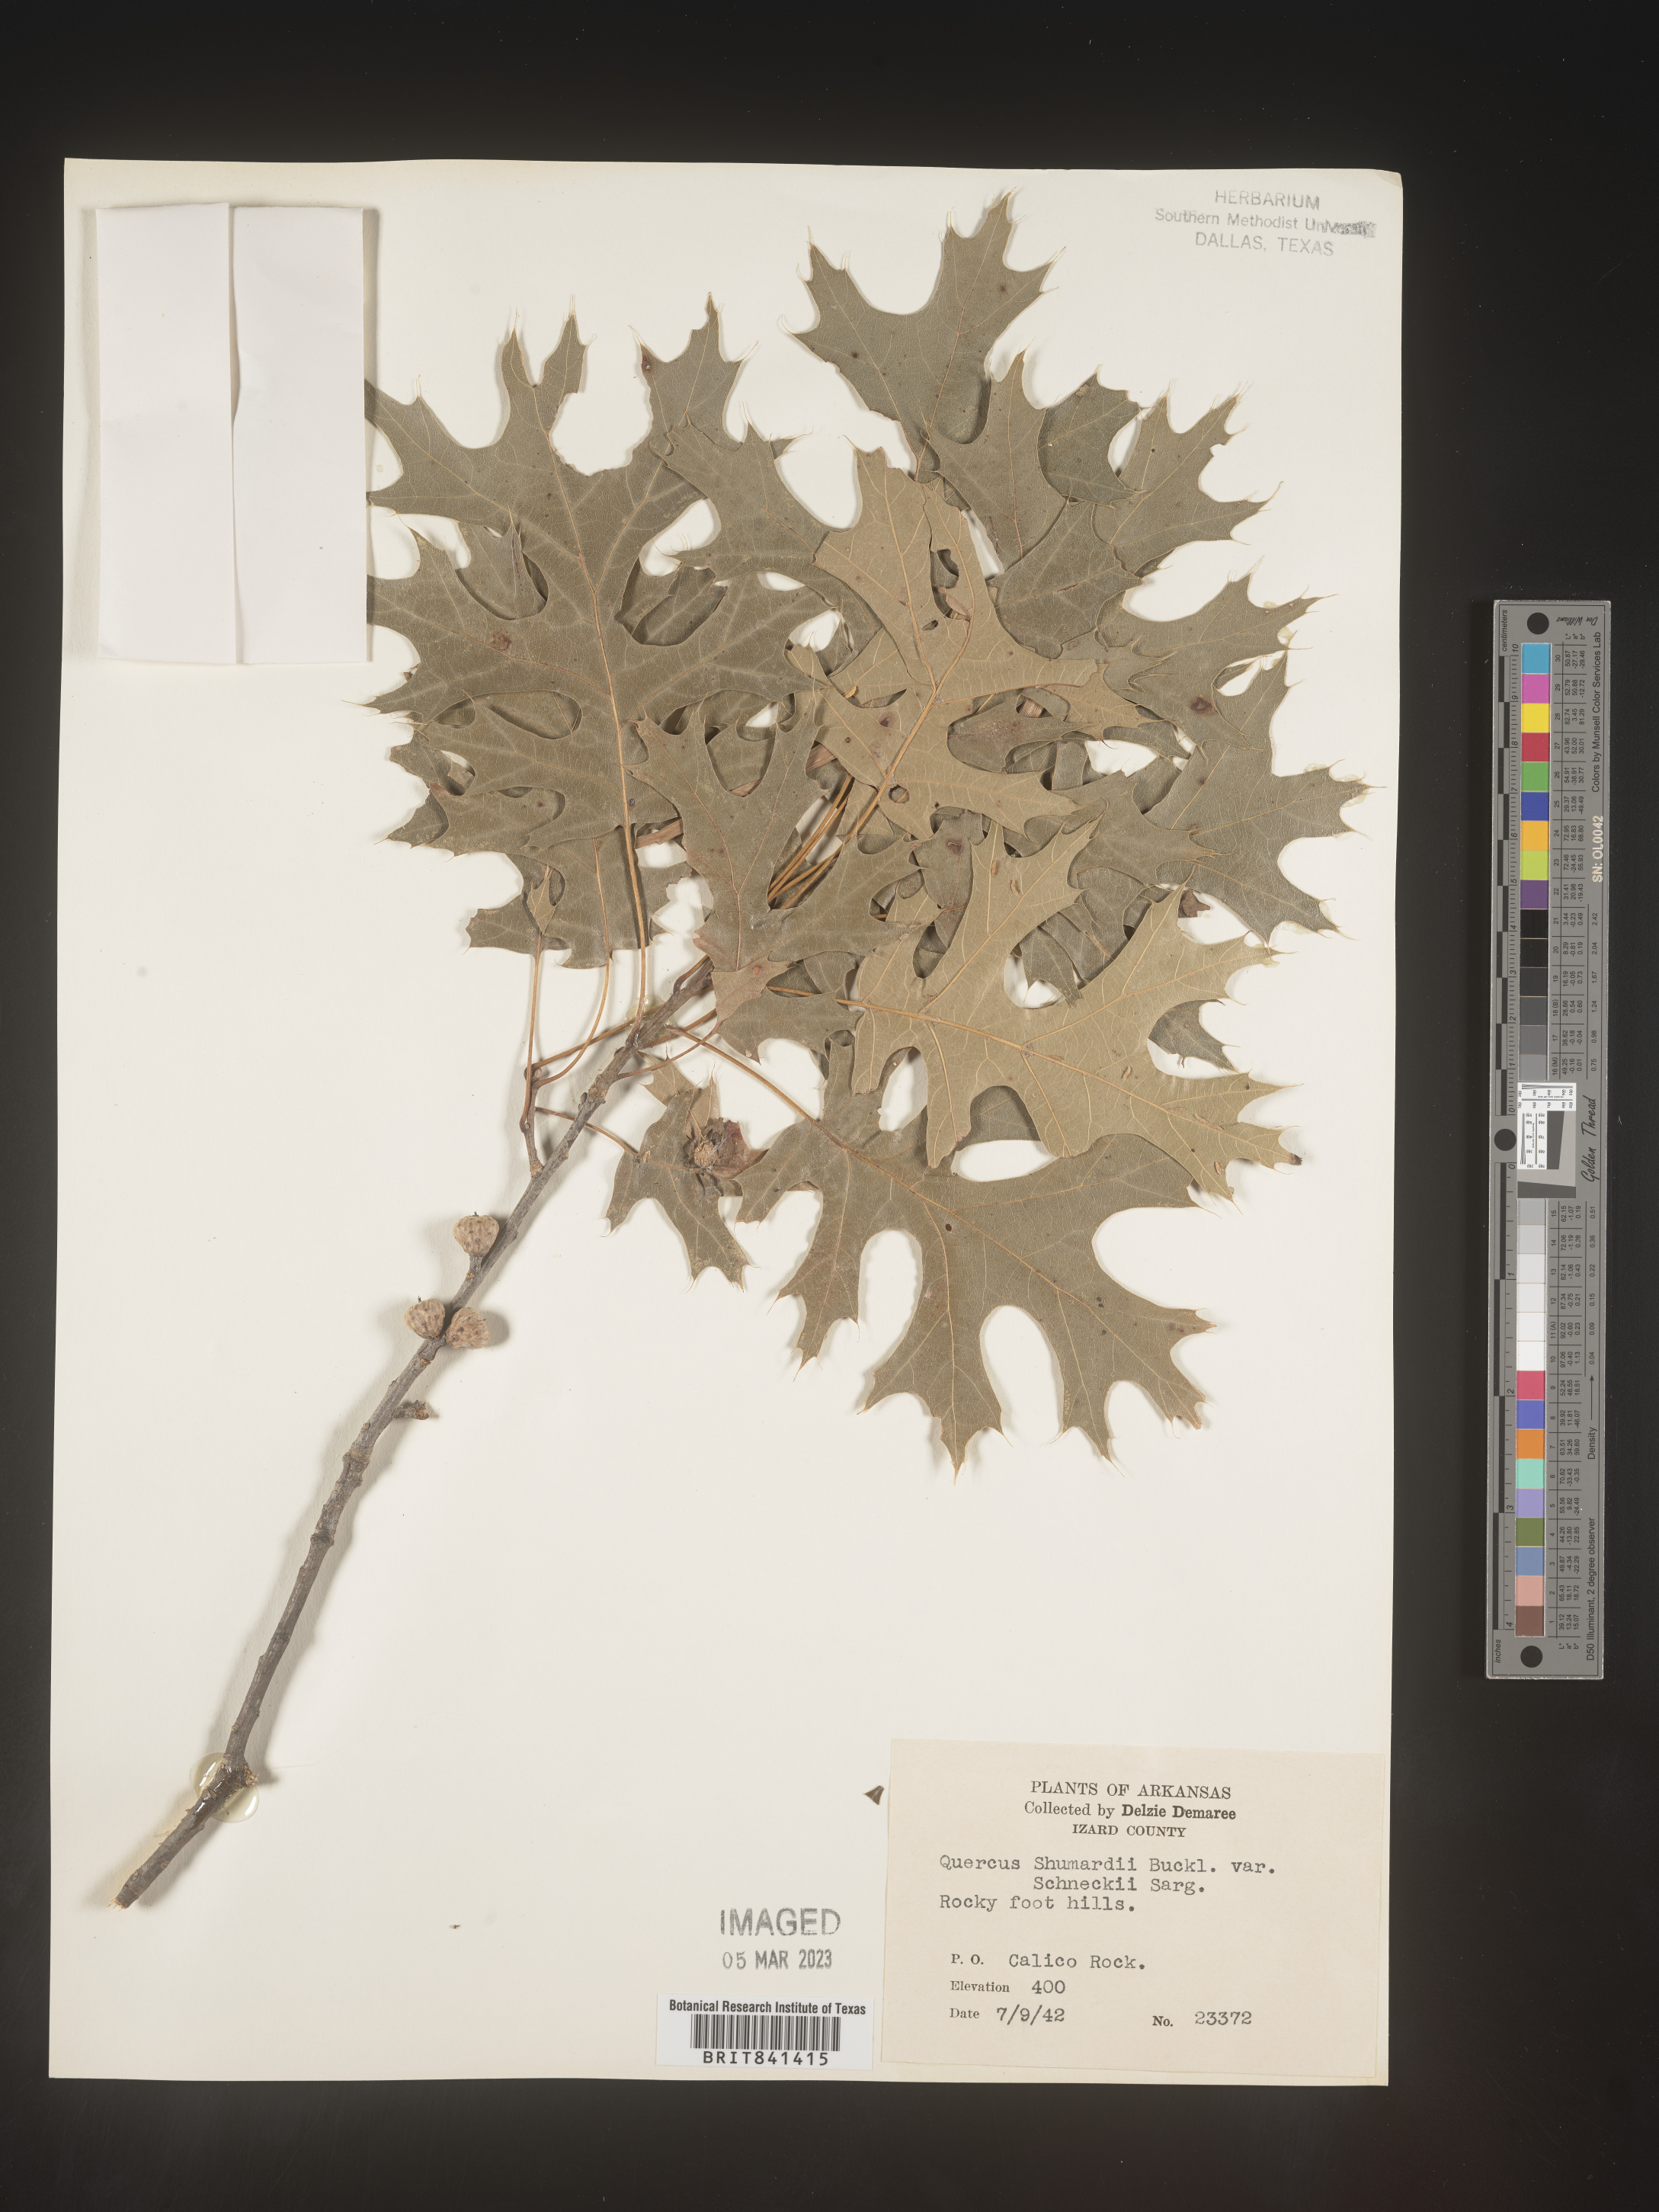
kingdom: Plantae
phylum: Tracheophyta
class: Magnoliopsida
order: Fagales
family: Fagaceae
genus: Quercus
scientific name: Quercus shumardii
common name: Shumard oak
